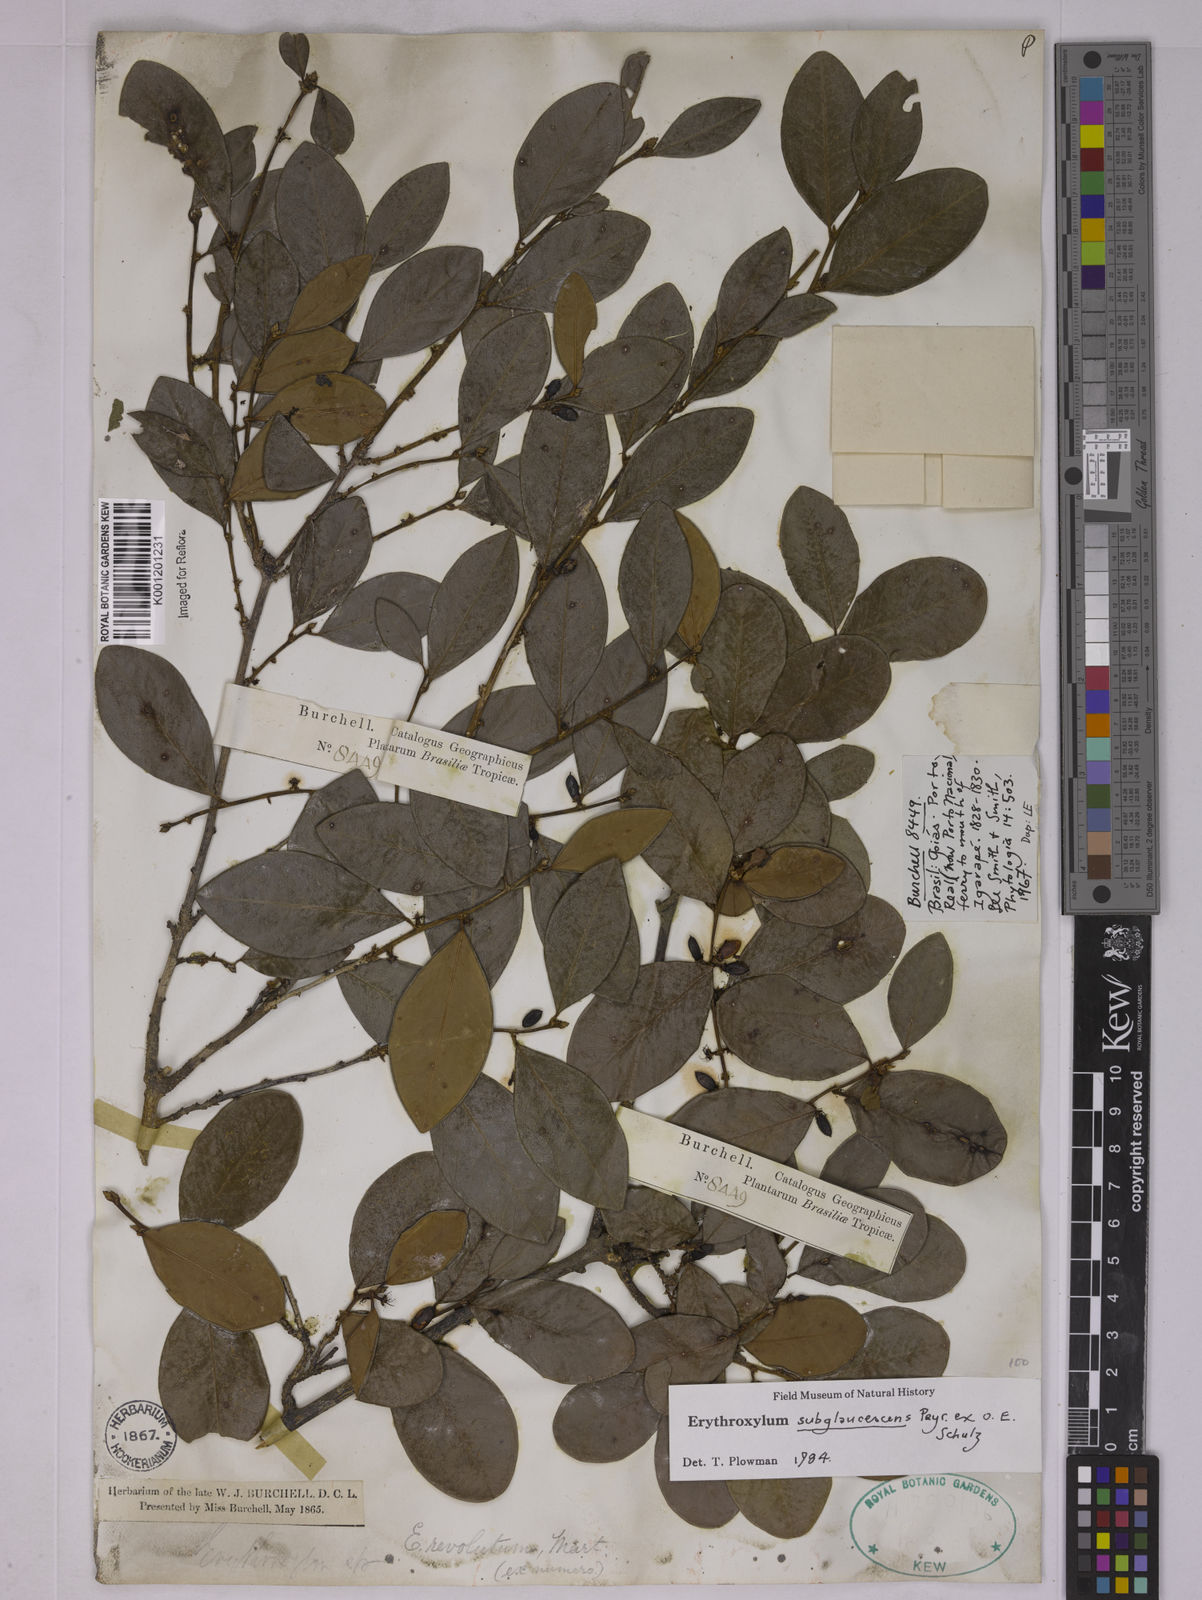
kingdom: Plantae
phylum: Tracheophyta
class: Magnoliopsida
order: Malpighiales
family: Erythroxylaceae
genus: Erythroxylum
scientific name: Erythroxylum
